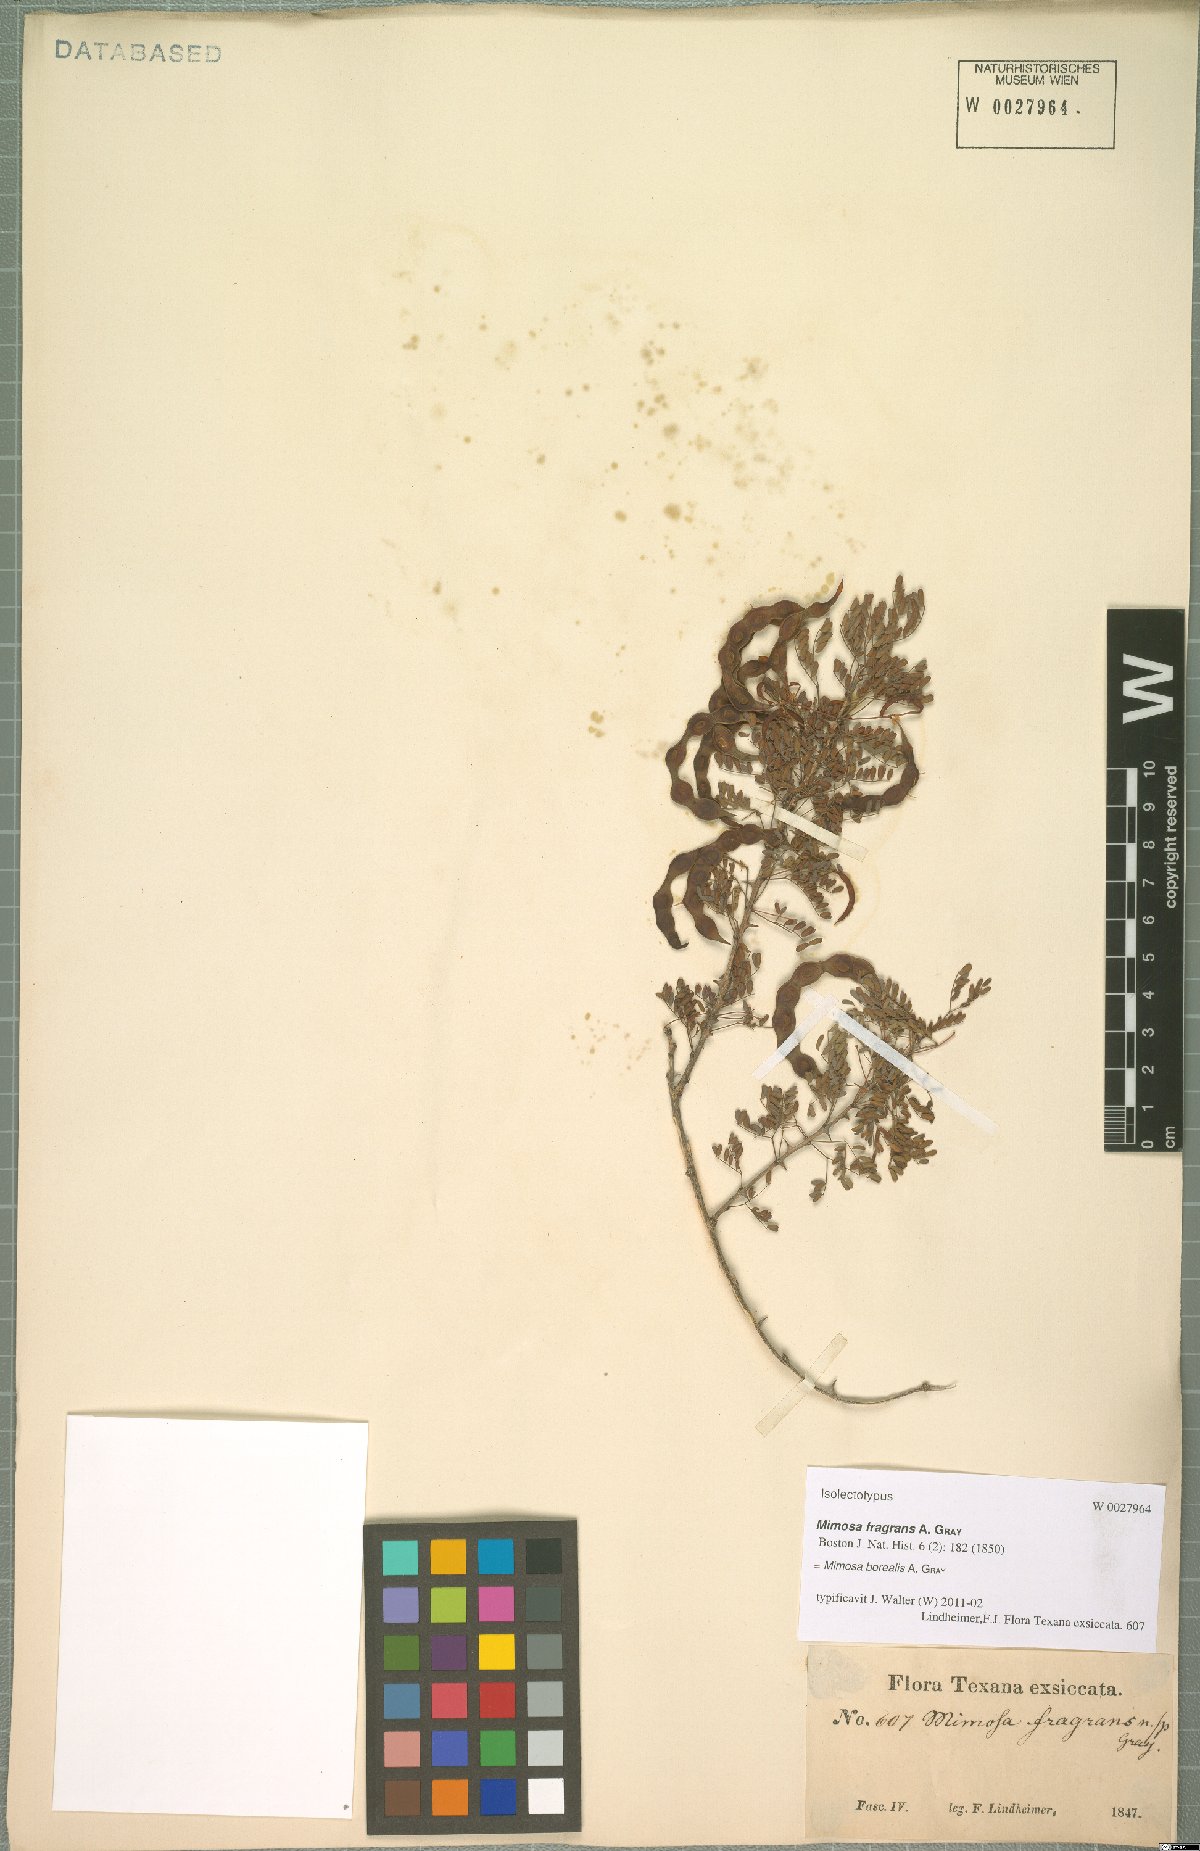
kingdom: Plantae
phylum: Tracheophyta
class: Magnoliopsida
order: Fabales
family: Fabaceae
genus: Mimosa
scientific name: Mimosa borealis
